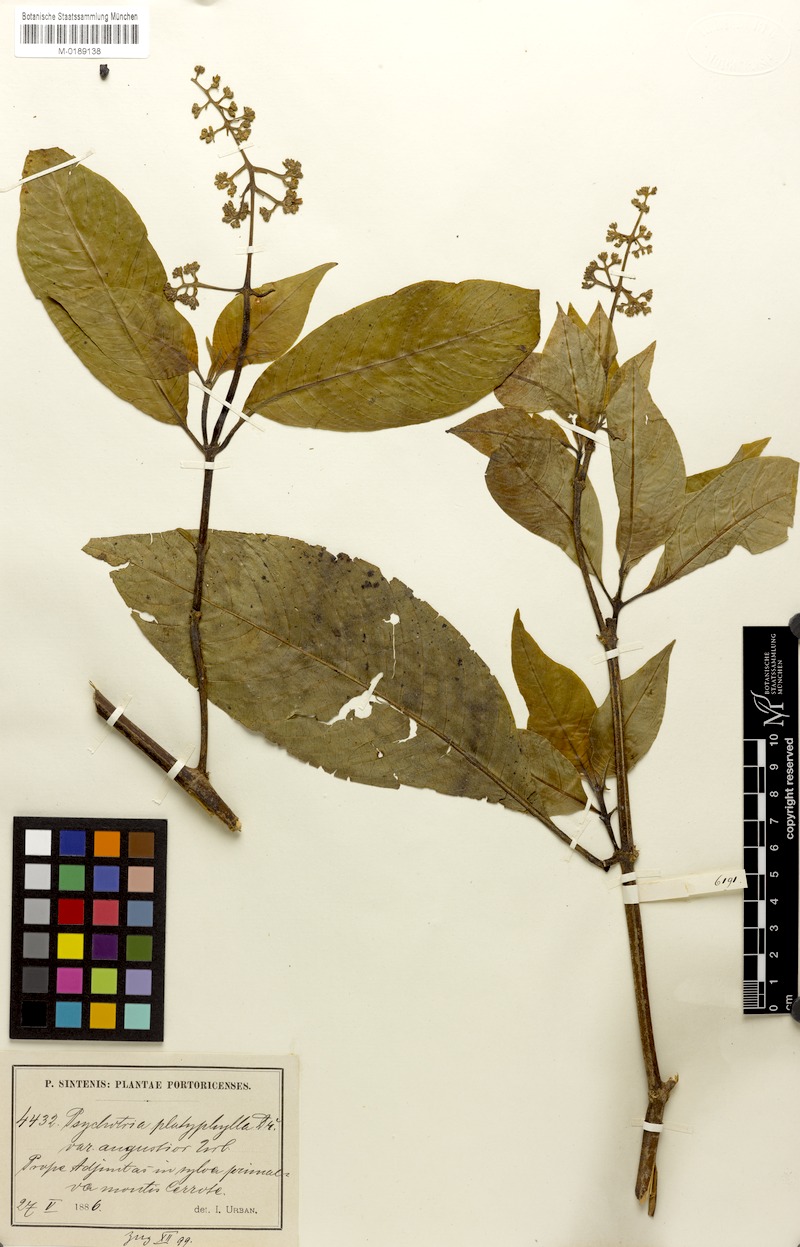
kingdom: Plantae
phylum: Tracheophyta
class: Magnoliopsida
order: Gentianales
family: Rubiaceae
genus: Palicourea
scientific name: Palicourea berteroana
